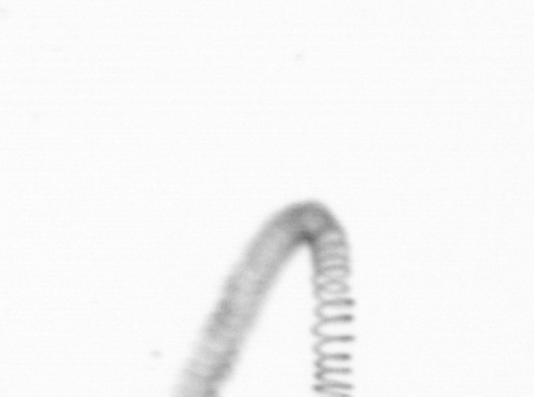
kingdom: Chromista
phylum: Ochrophyta
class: Bacillariophyceae
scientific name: Bacillariophyceae
